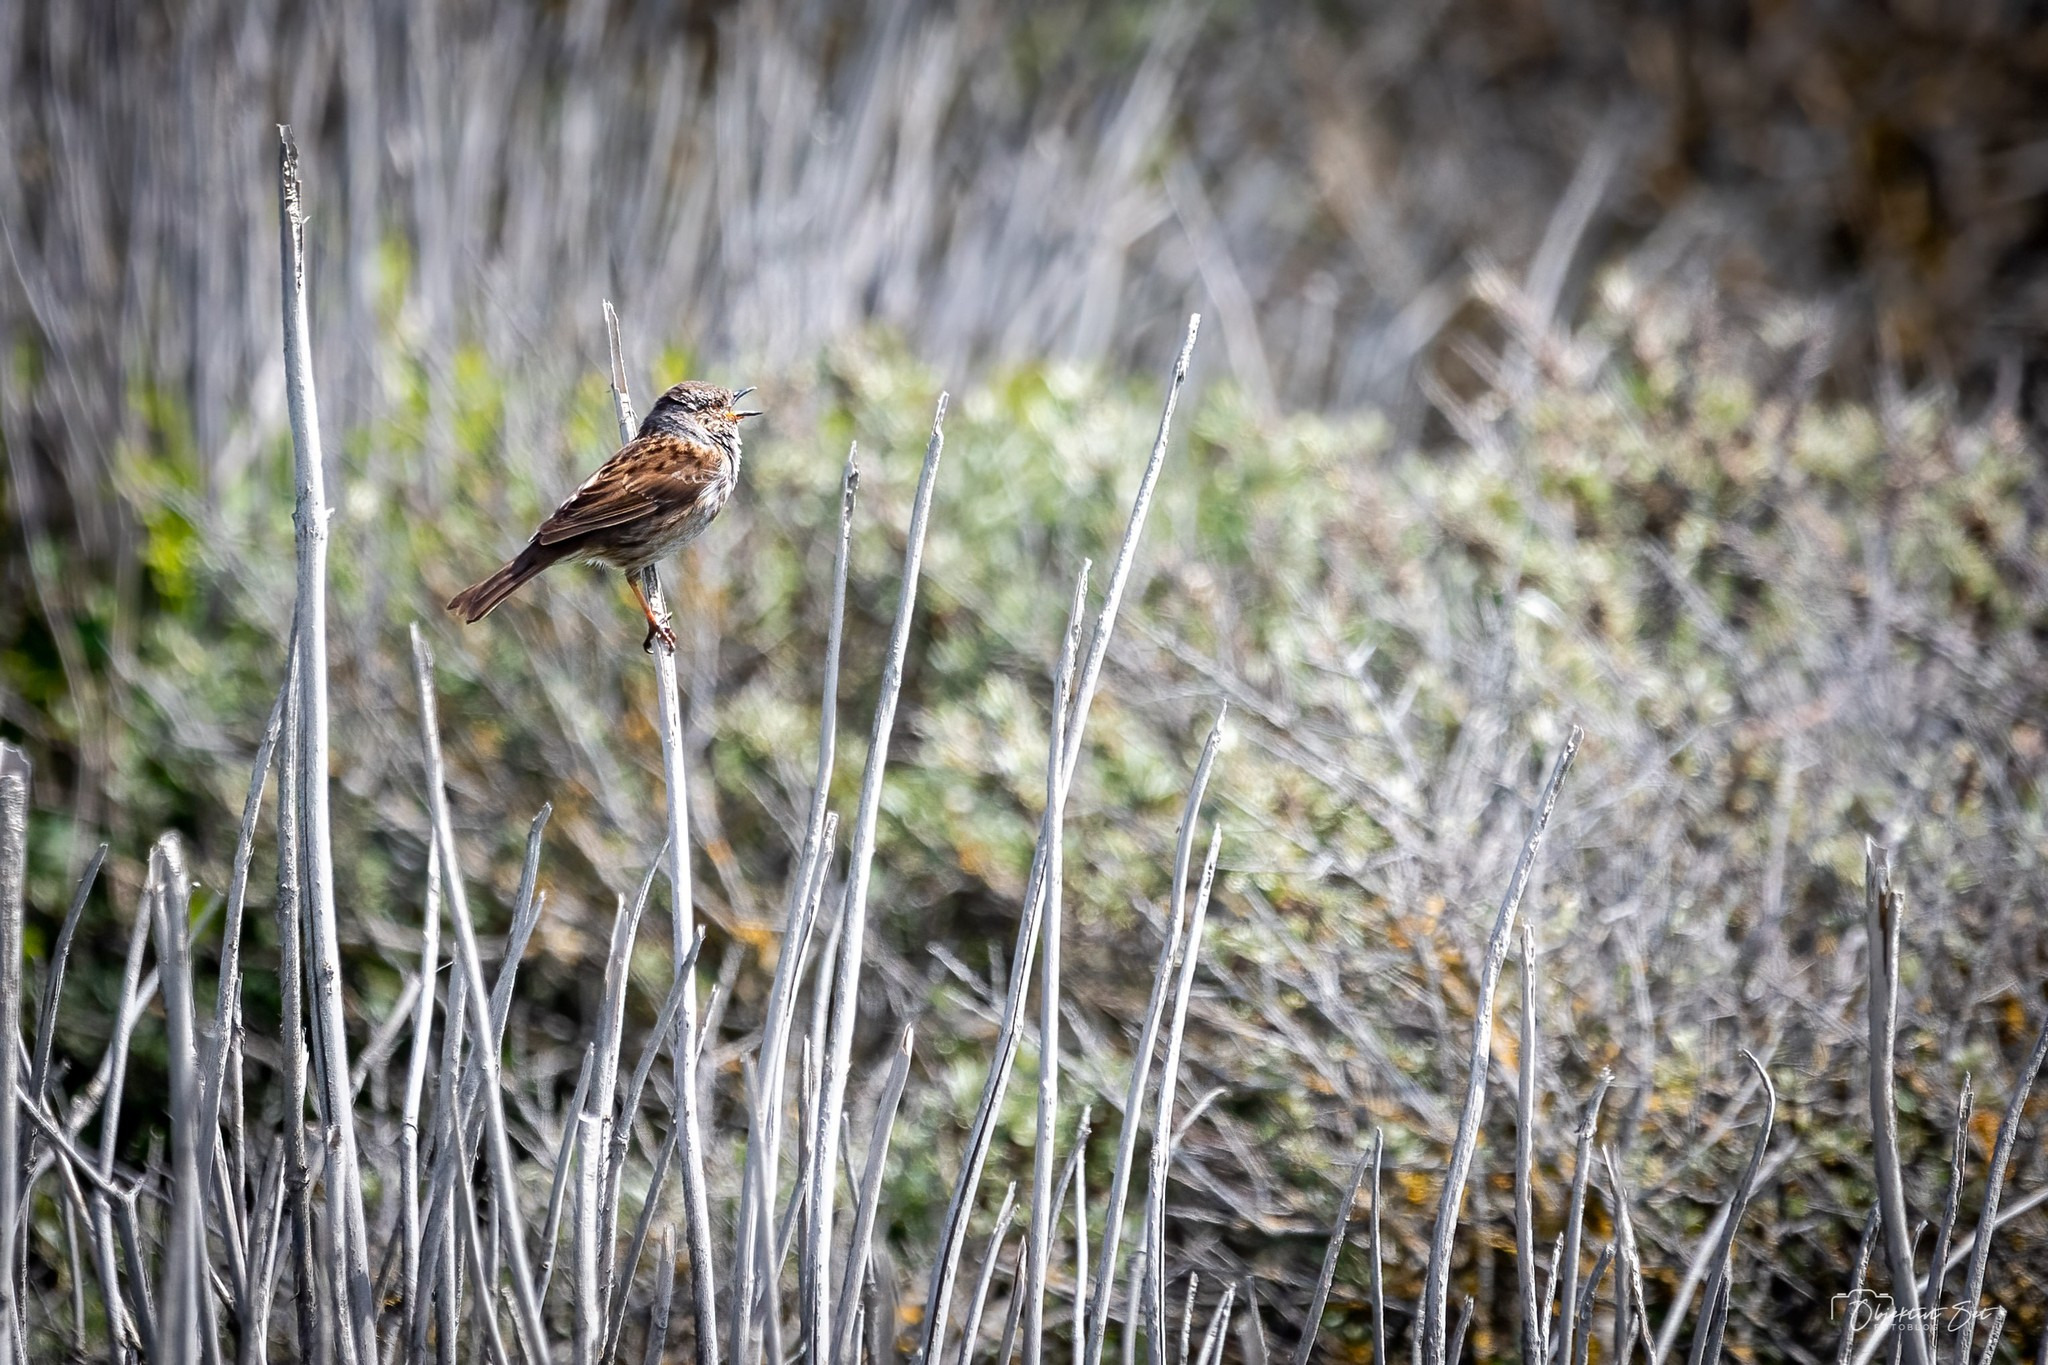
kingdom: Animalia
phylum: Chordata
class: Aves
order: Passeriformes
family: Prunellidae
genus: Prunella
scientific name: Prunella modularis
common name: Jernspurv
